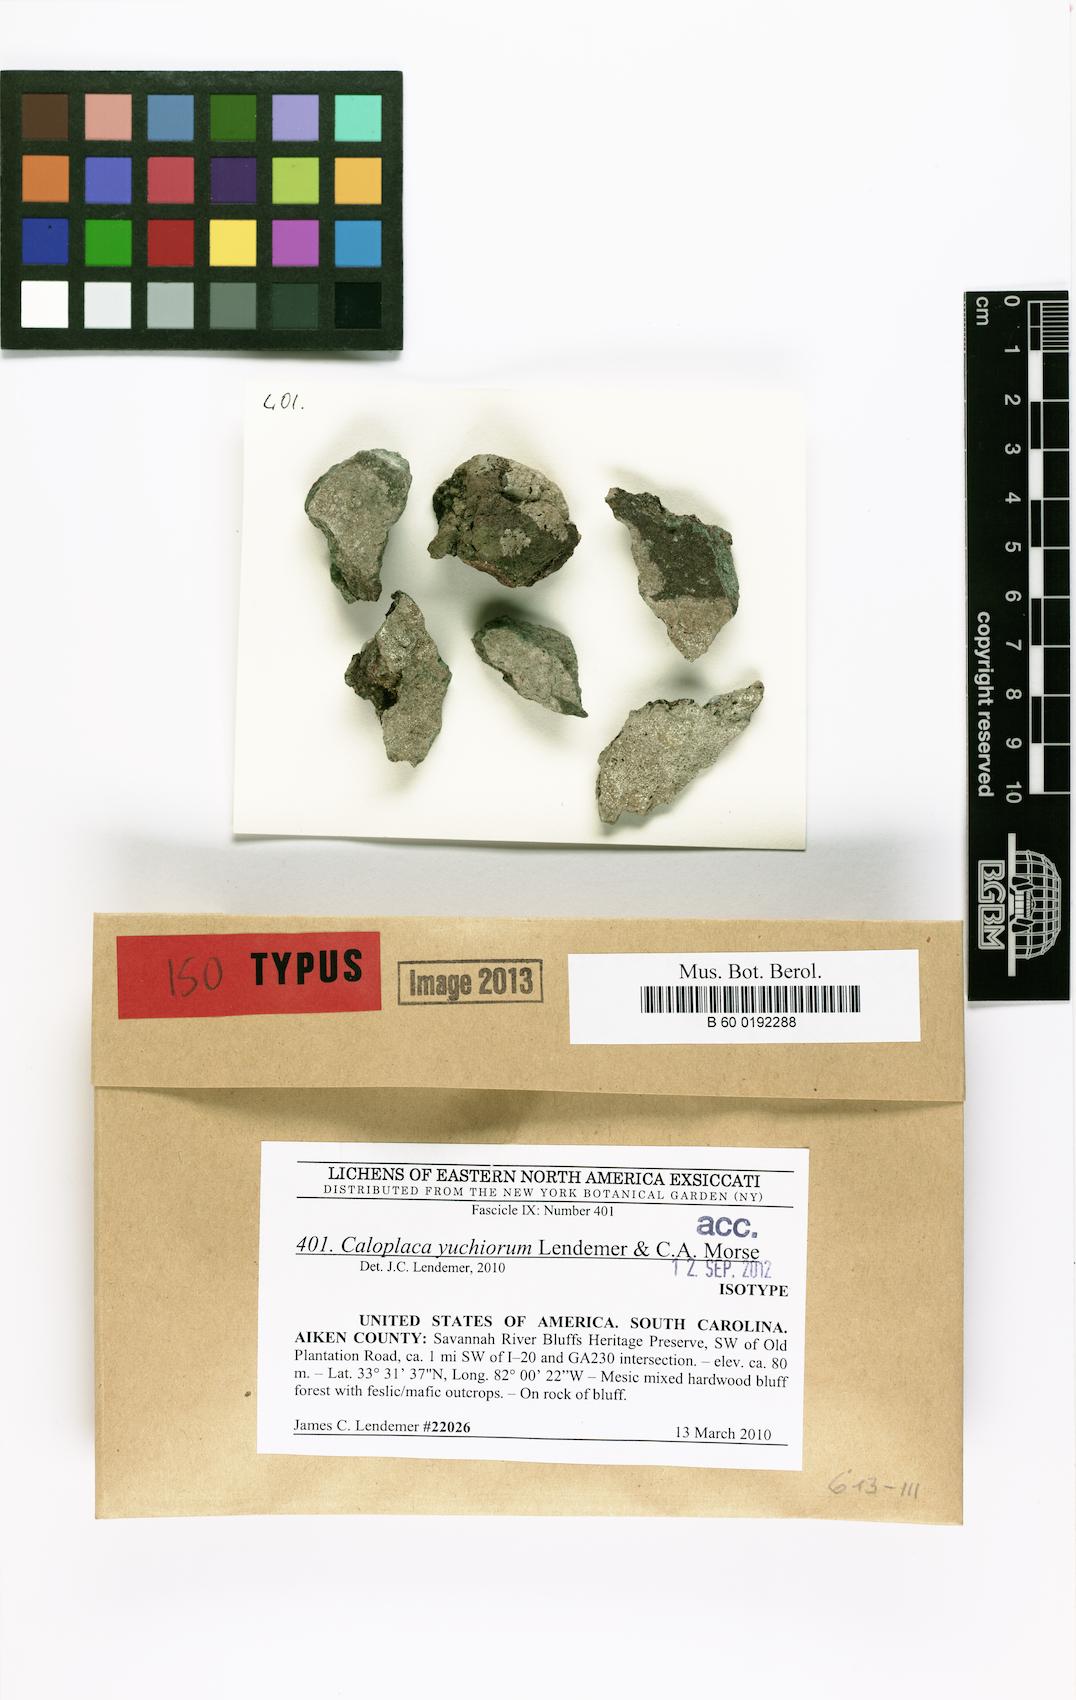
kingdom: Fungi
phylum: Ascomycota
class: Lecanoromycetes
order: Teloschistales
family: Teloschistaceae
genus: Loekoesia
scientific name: Loekoesia yuchiorum
